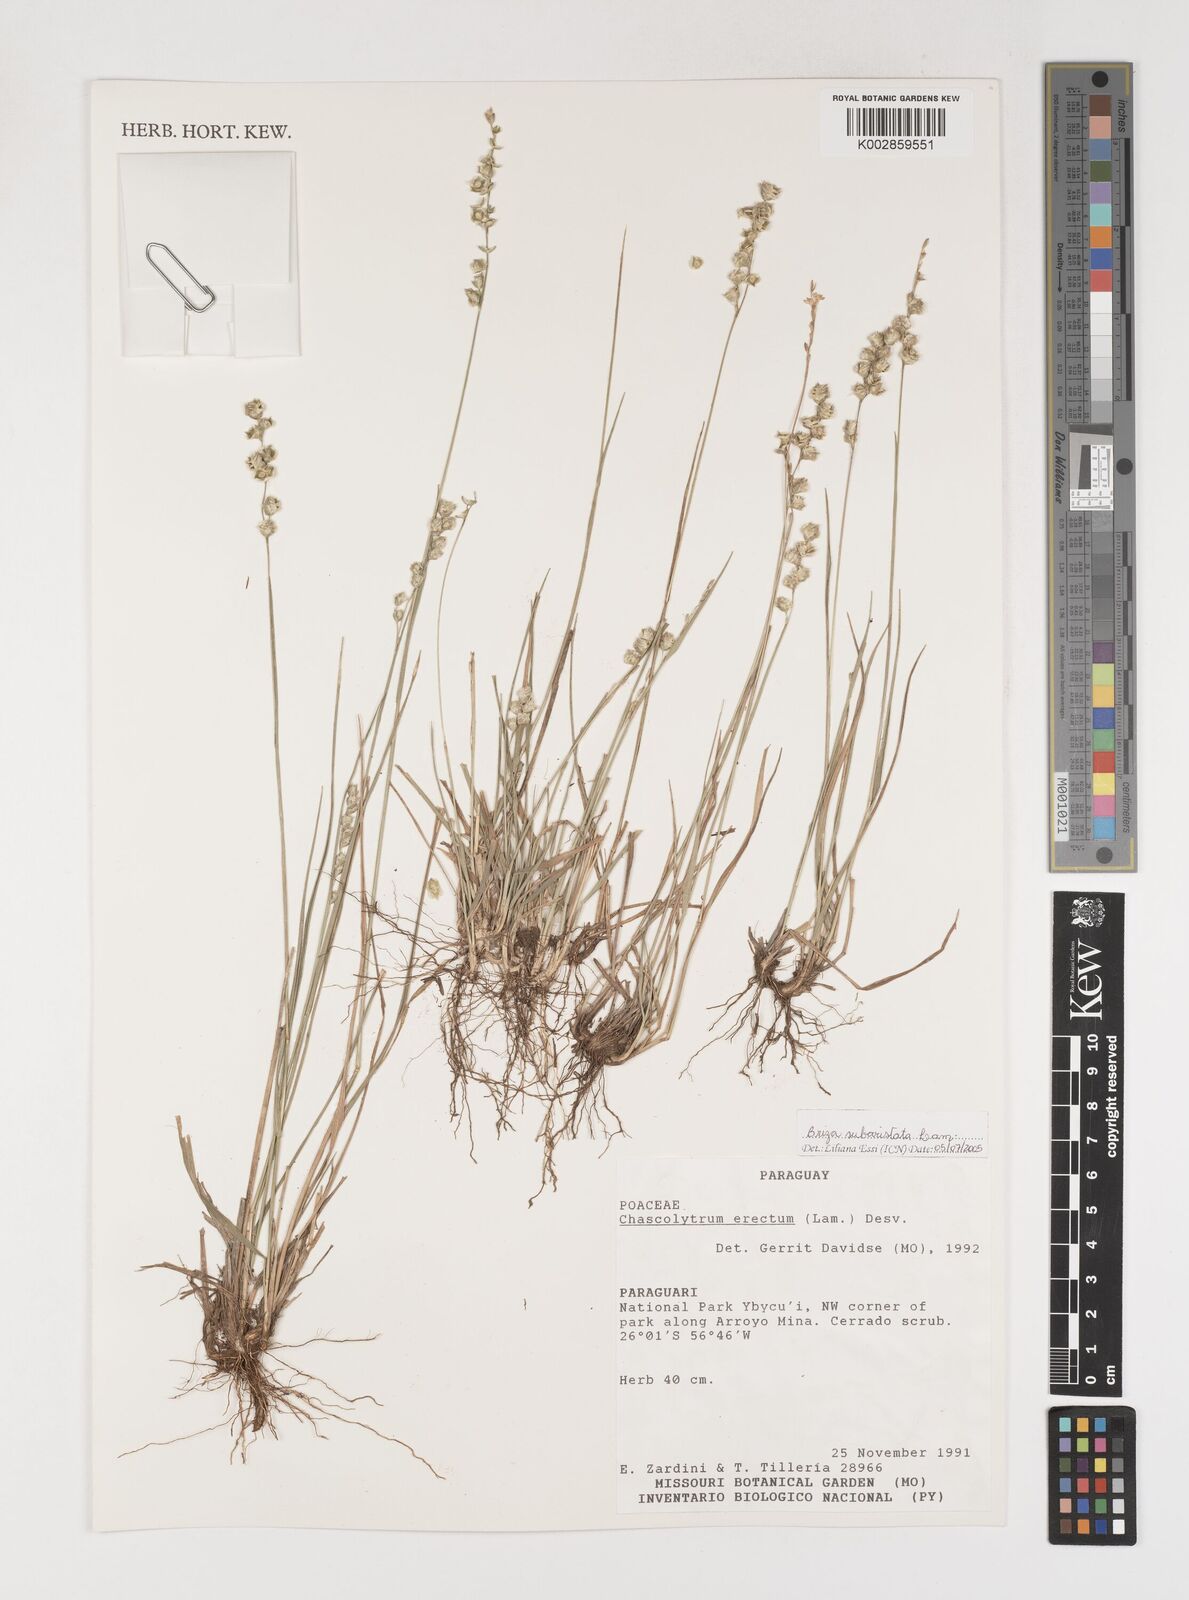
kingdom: Plantae
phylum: Tracheophyta
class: Liliopsida
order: Poales
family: Poaceae
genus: Chascolytrum
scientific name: Chascolytrum subaristatum
